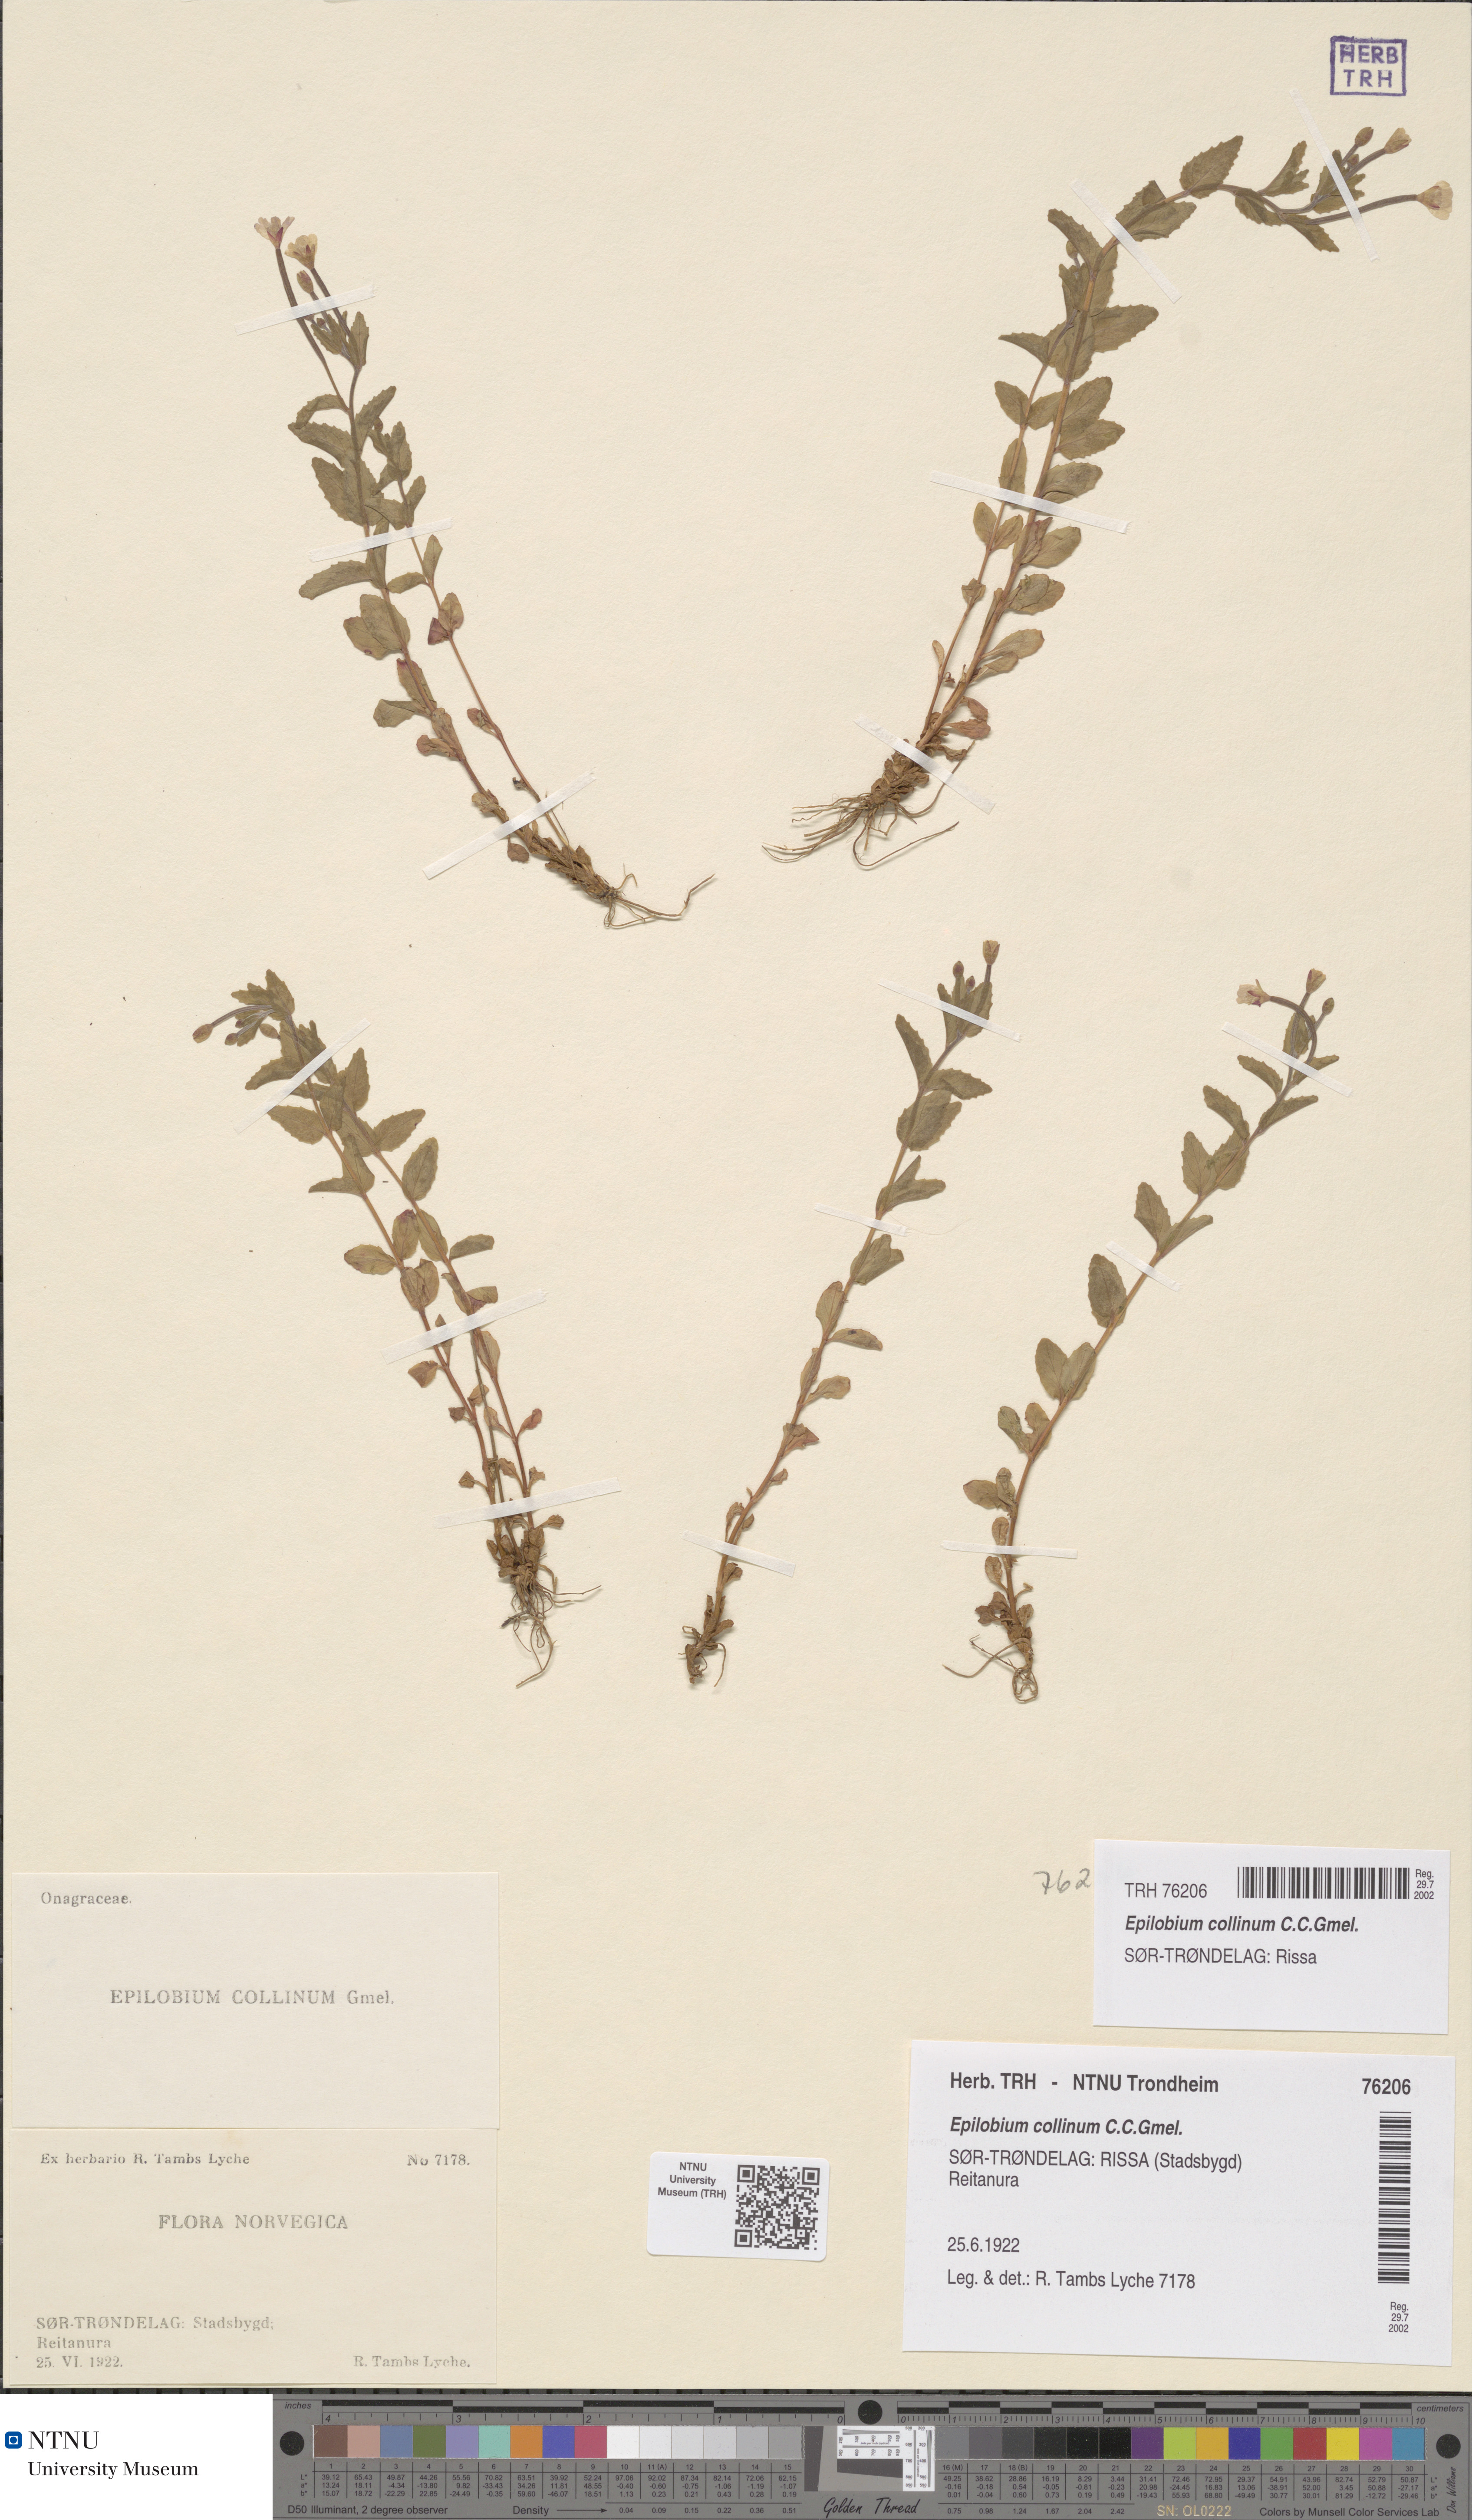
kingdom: Plantae
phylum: Tracheophyta
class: Magnoliopsida
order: Myrtales
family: Onagraceae
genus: Epilobium
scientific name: Epilobium collinum
